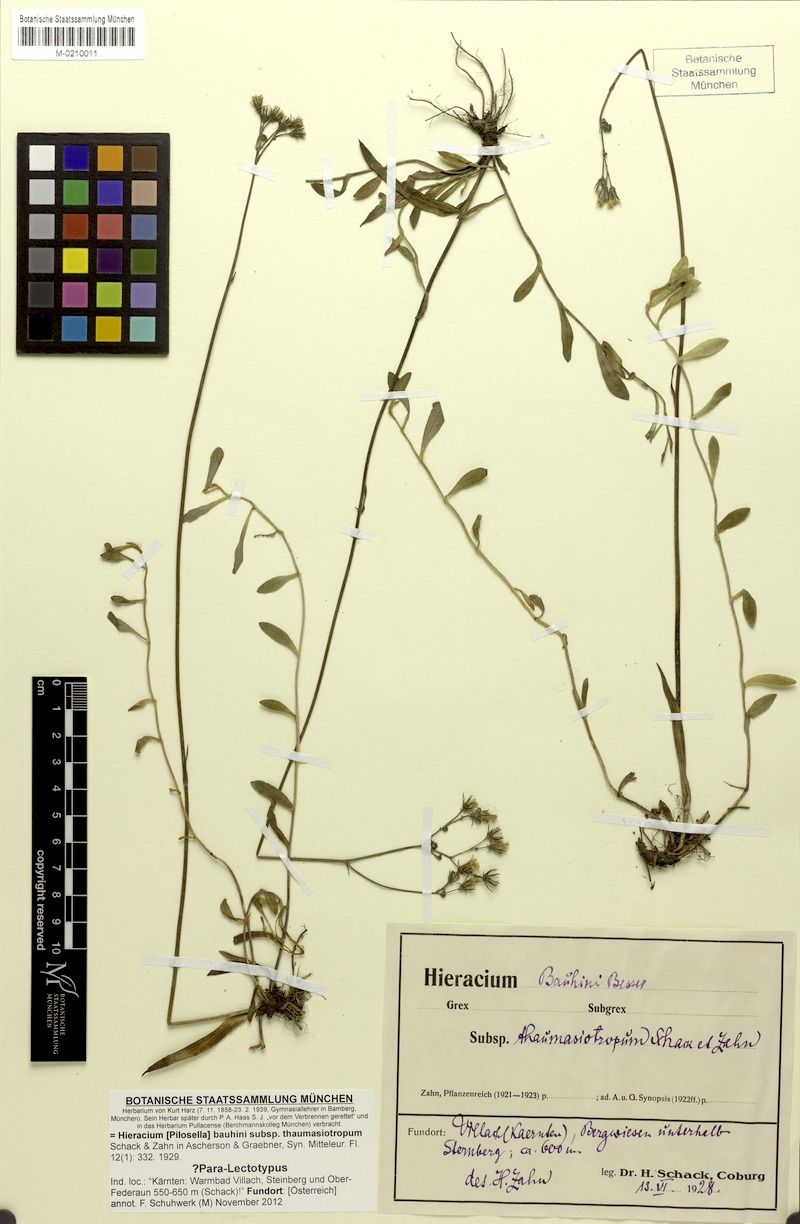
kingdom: Plantae
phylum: Tracheophyta
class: Magnoliopsida
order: Asterales
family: Asteraceae
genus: Pilosella
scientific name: Pilosella bauhini
